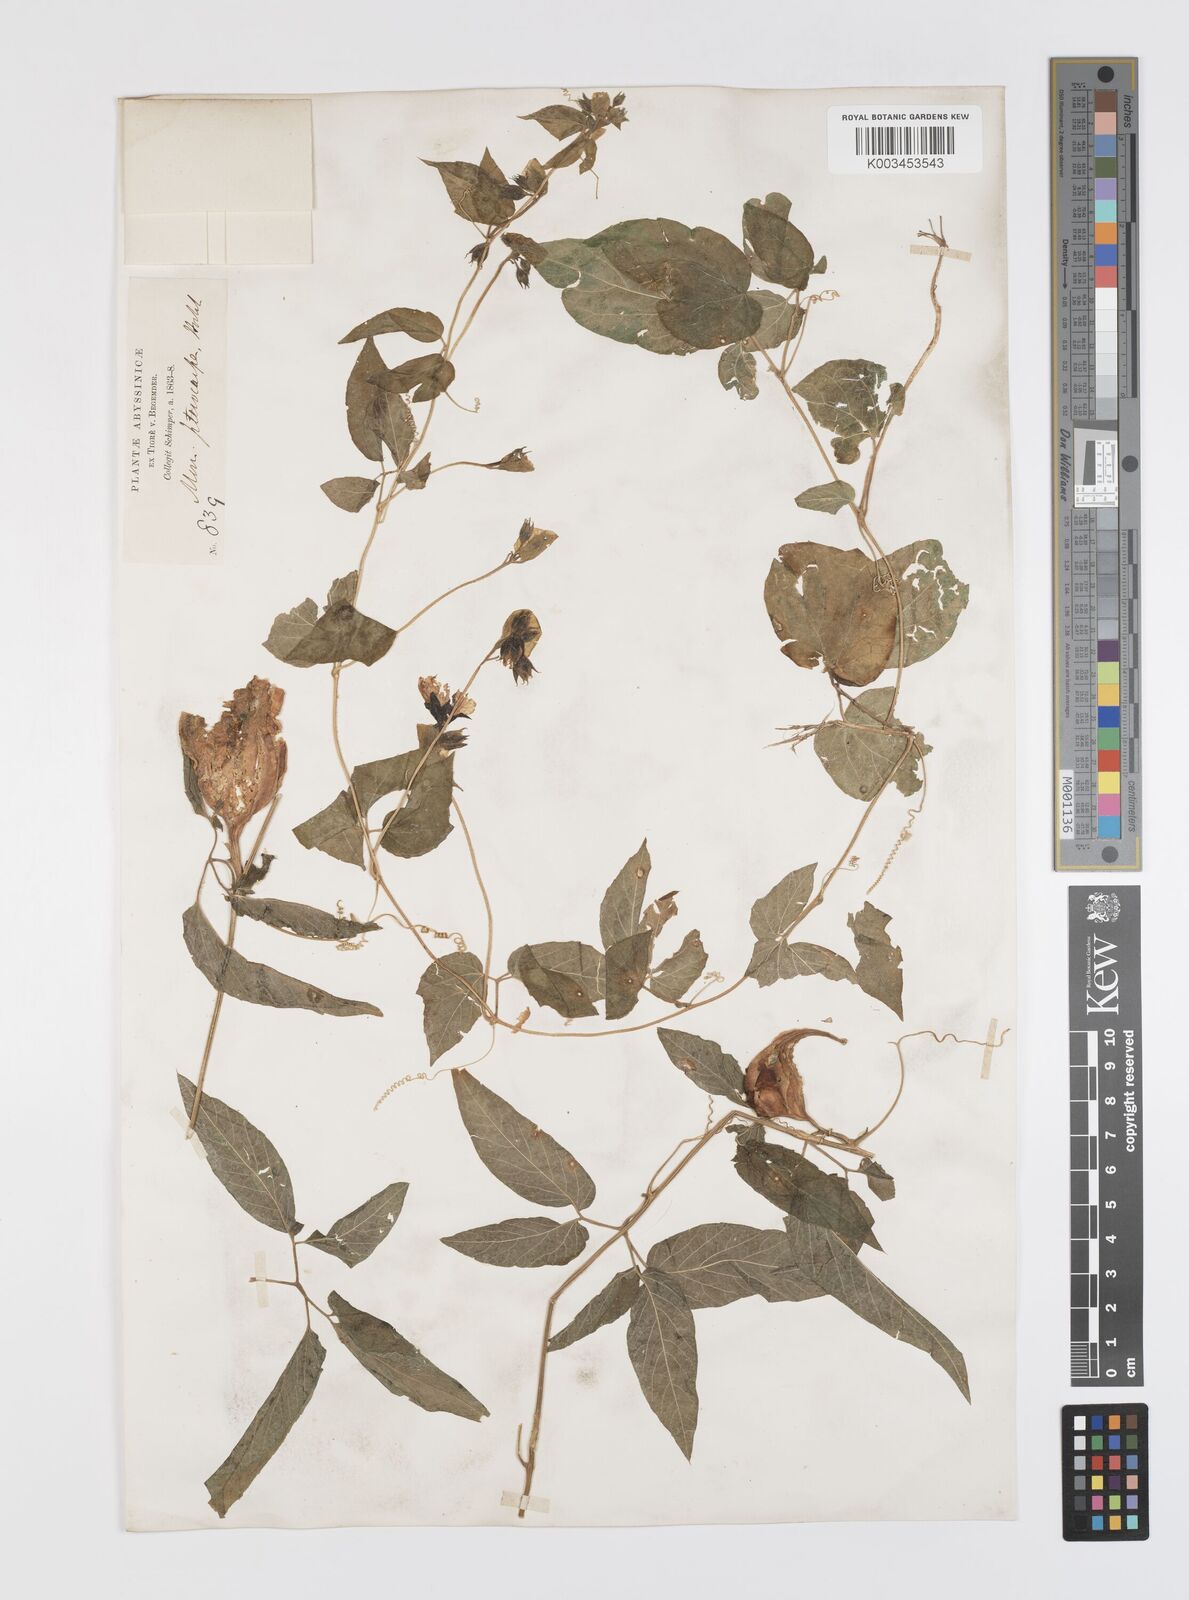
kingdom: Plantae
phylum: Tracheophyta
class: Magnoliopsida
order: Cucurbitales
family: Cucurbitaceae
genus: Momordica
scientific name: Momordica pterocarpa
